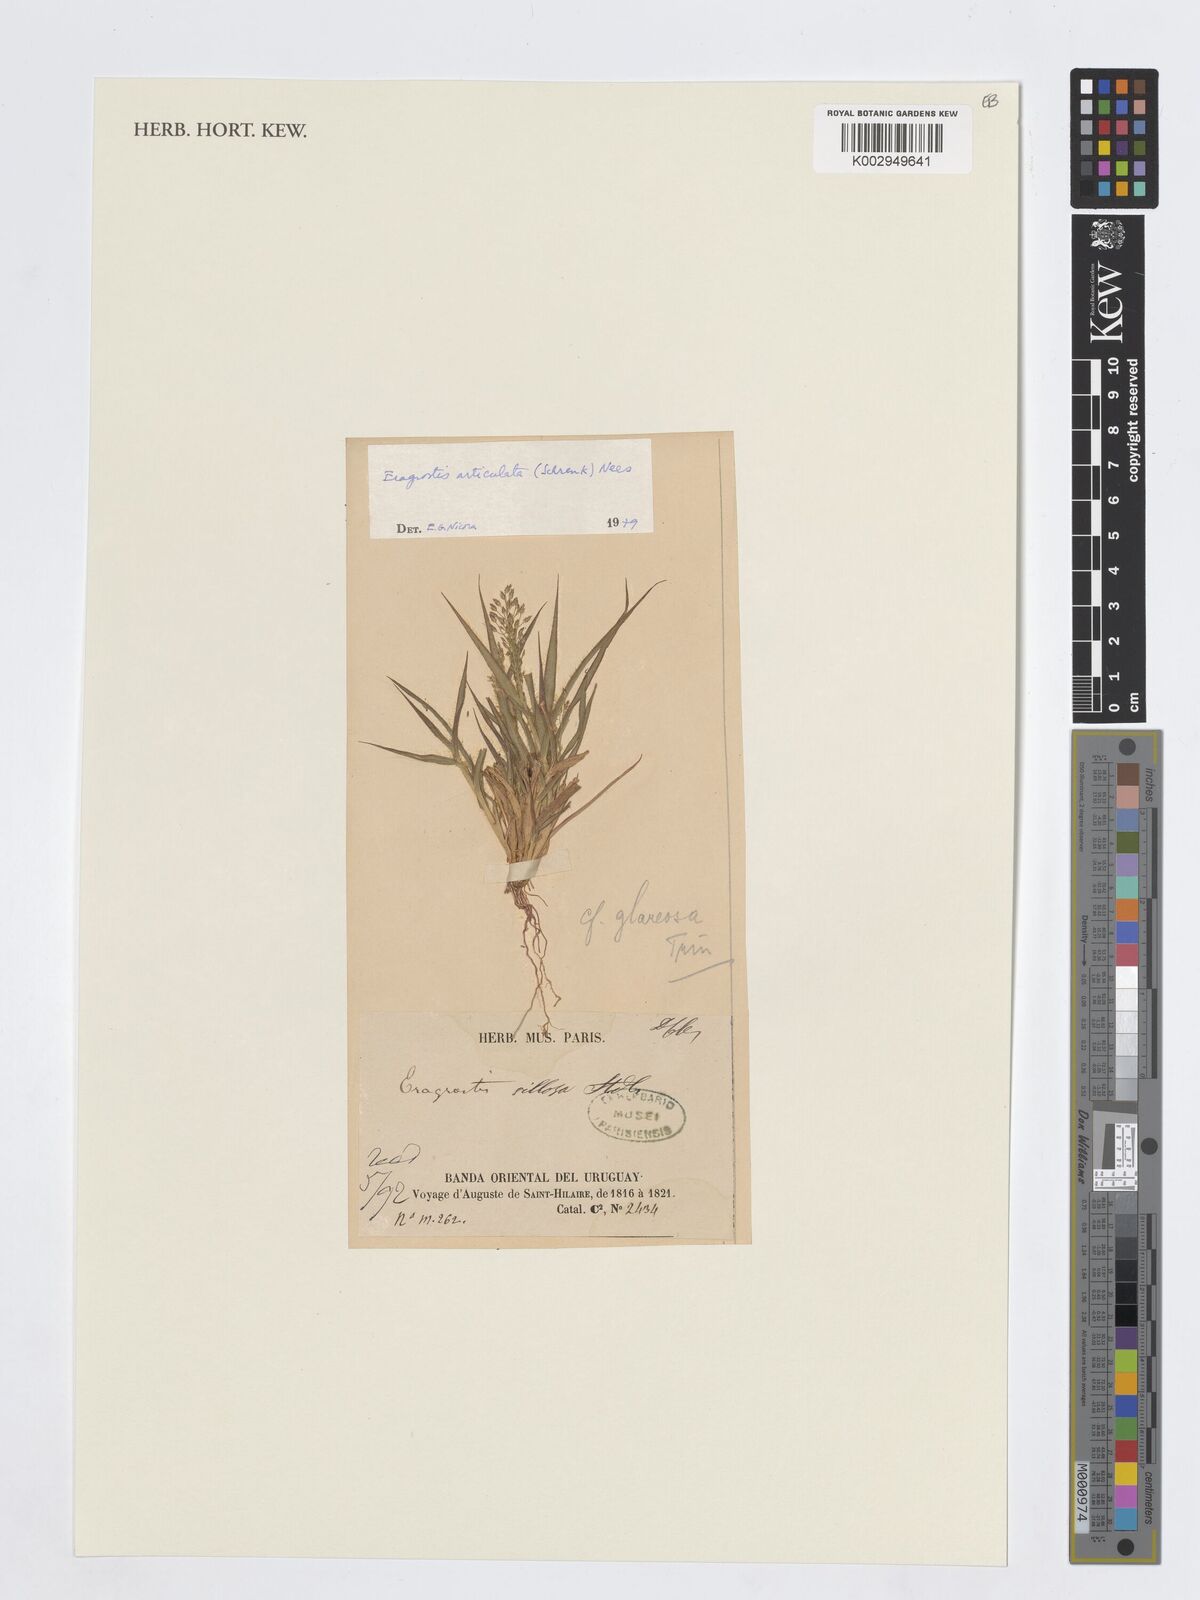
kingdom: Plantae
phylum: Tracheophyta
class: Liliopsida
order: Poales
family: Poaceae
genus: Eragrostis
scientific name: Eragrostis articulata
